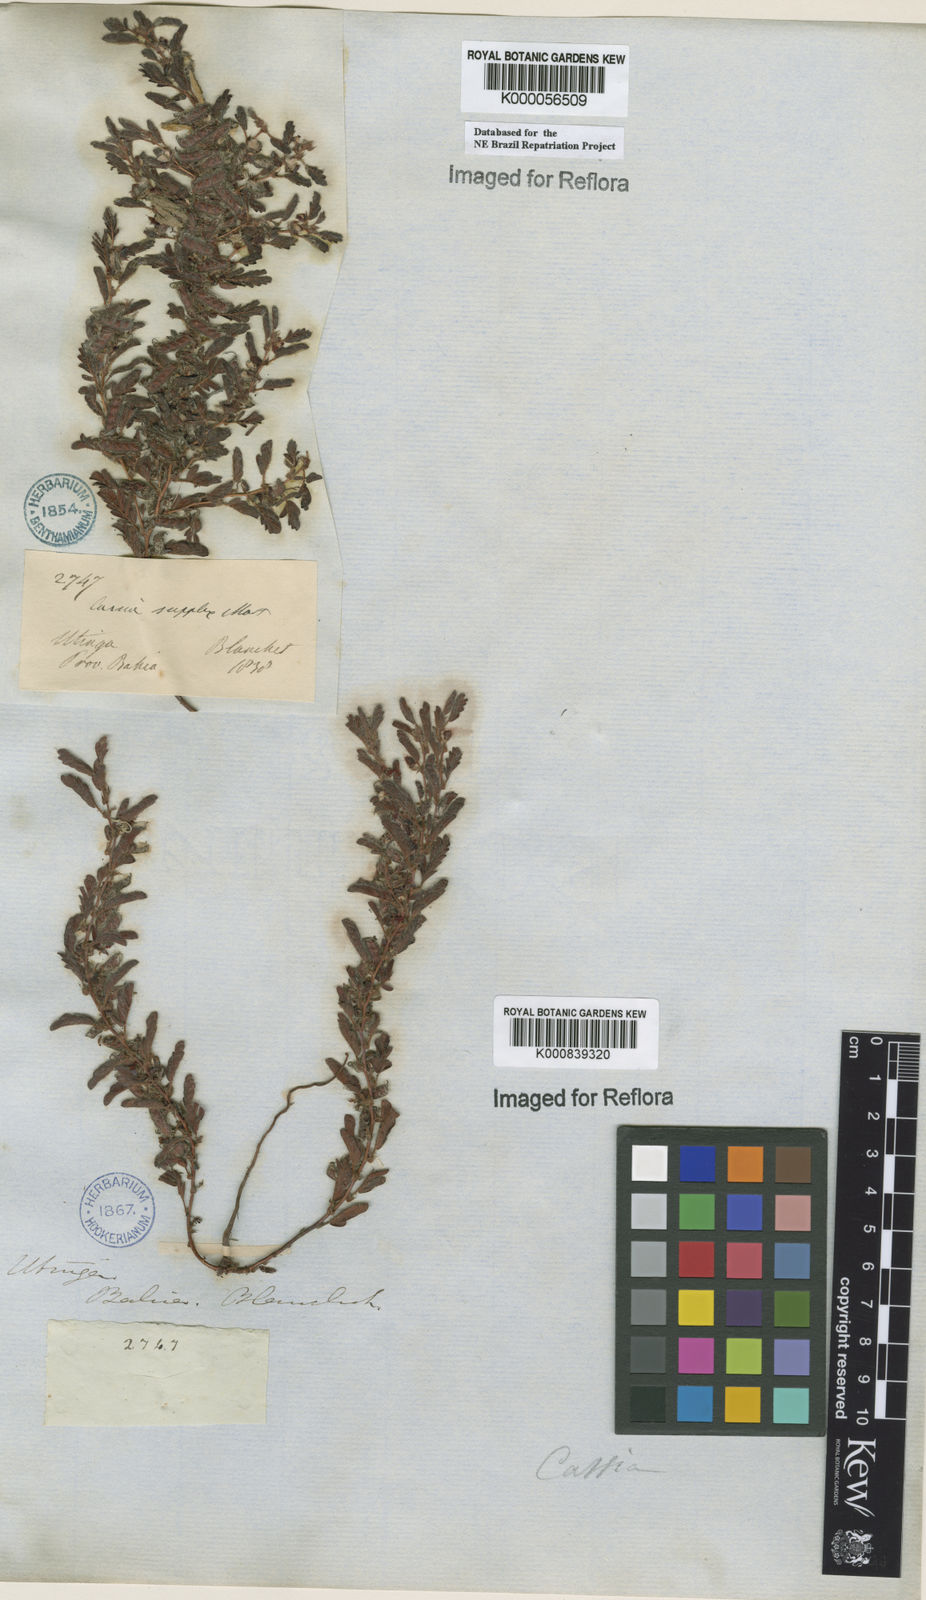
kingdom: Plantae
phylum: Tracheophyta
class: Magnoliopsida
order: Fabales
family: Fabaceae
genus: Chamaecrista
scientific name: Chamaecrista supplex
